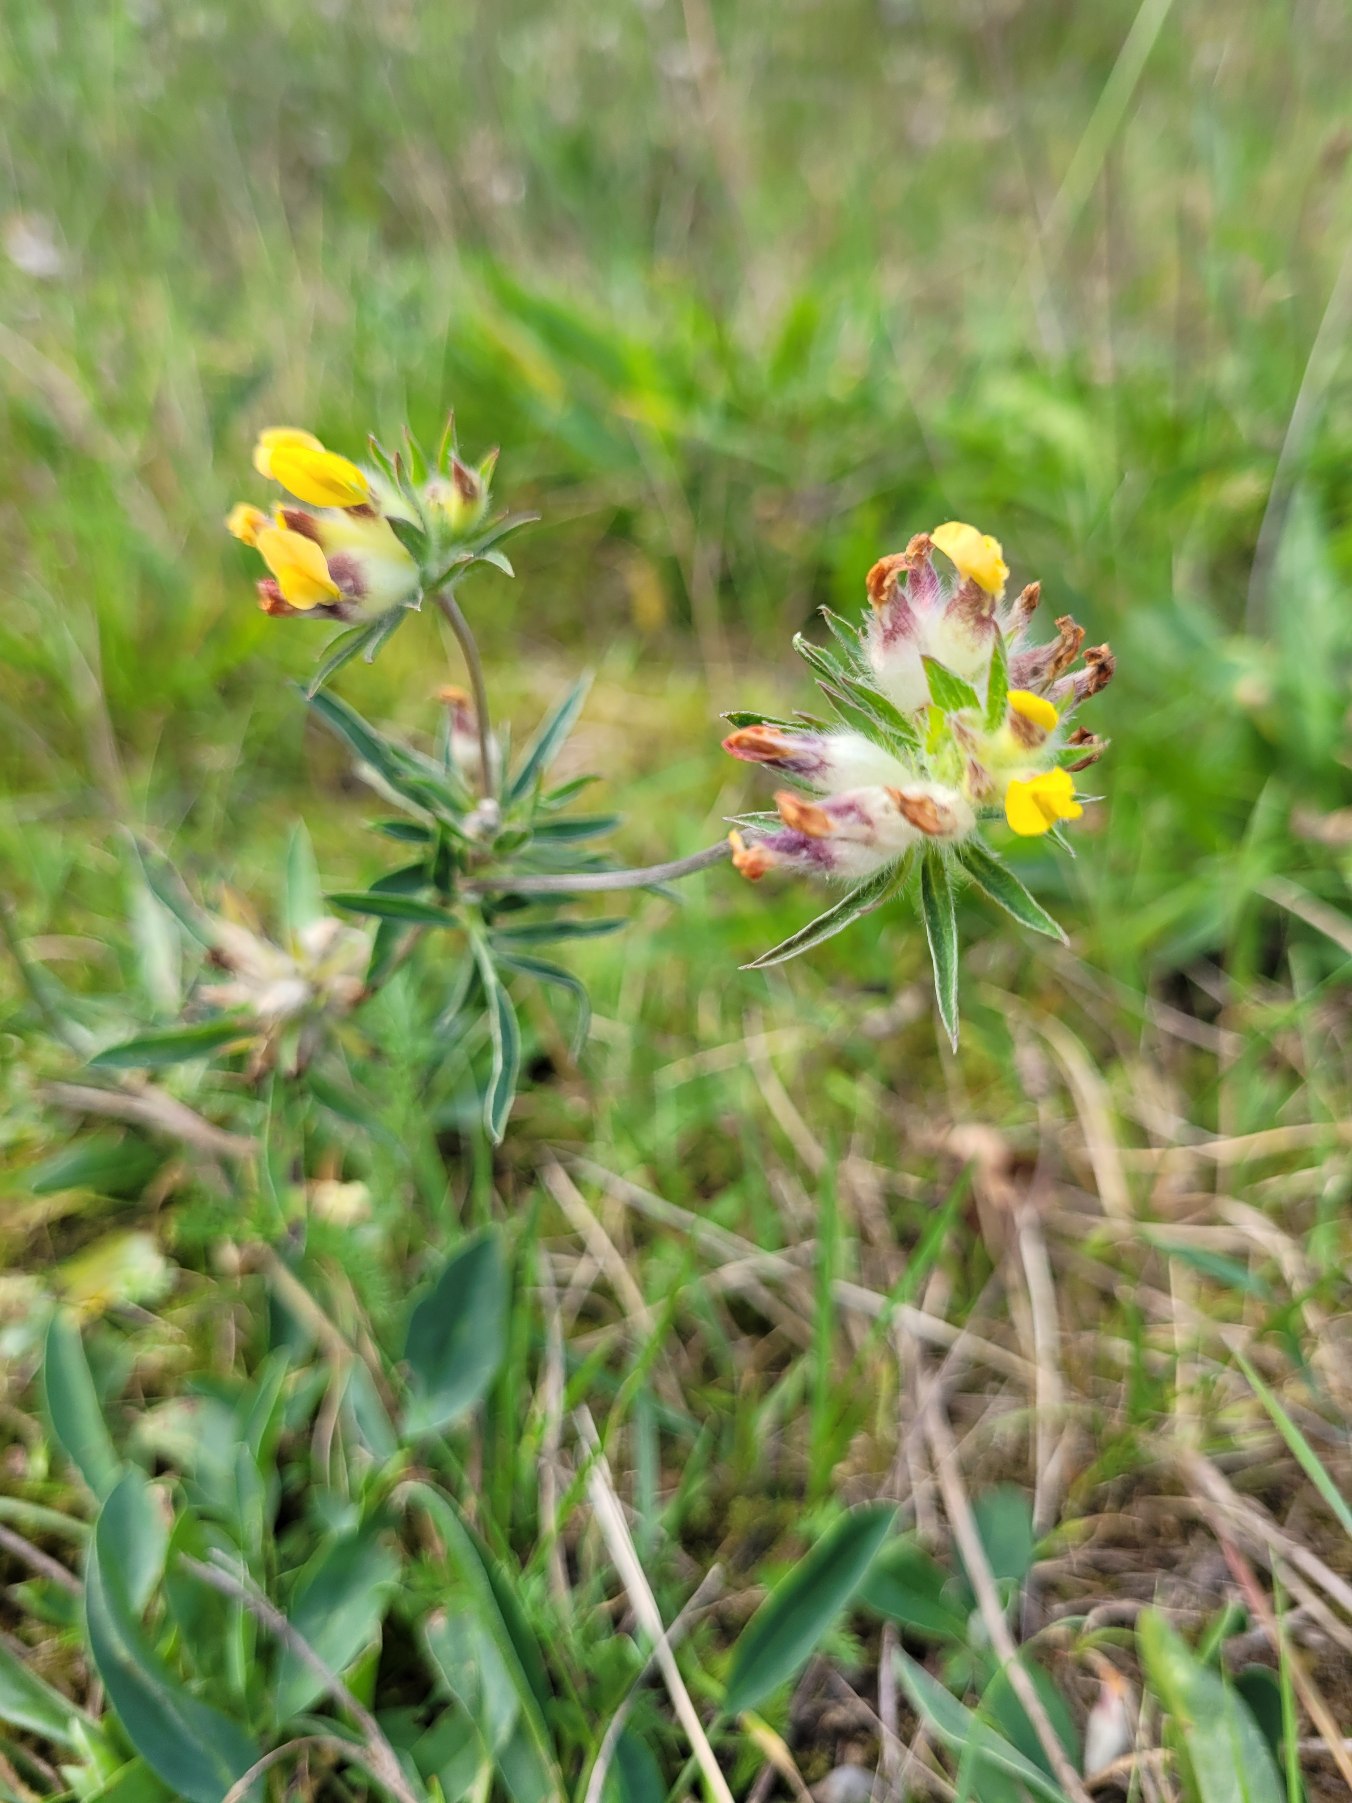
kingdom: Plantae
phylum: Tracheophyta
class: Magnoliopsida
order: Fabales
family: Fabaceae
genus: Anthyllis
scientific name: Anthyllis vulneraria
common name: Rundbælg
